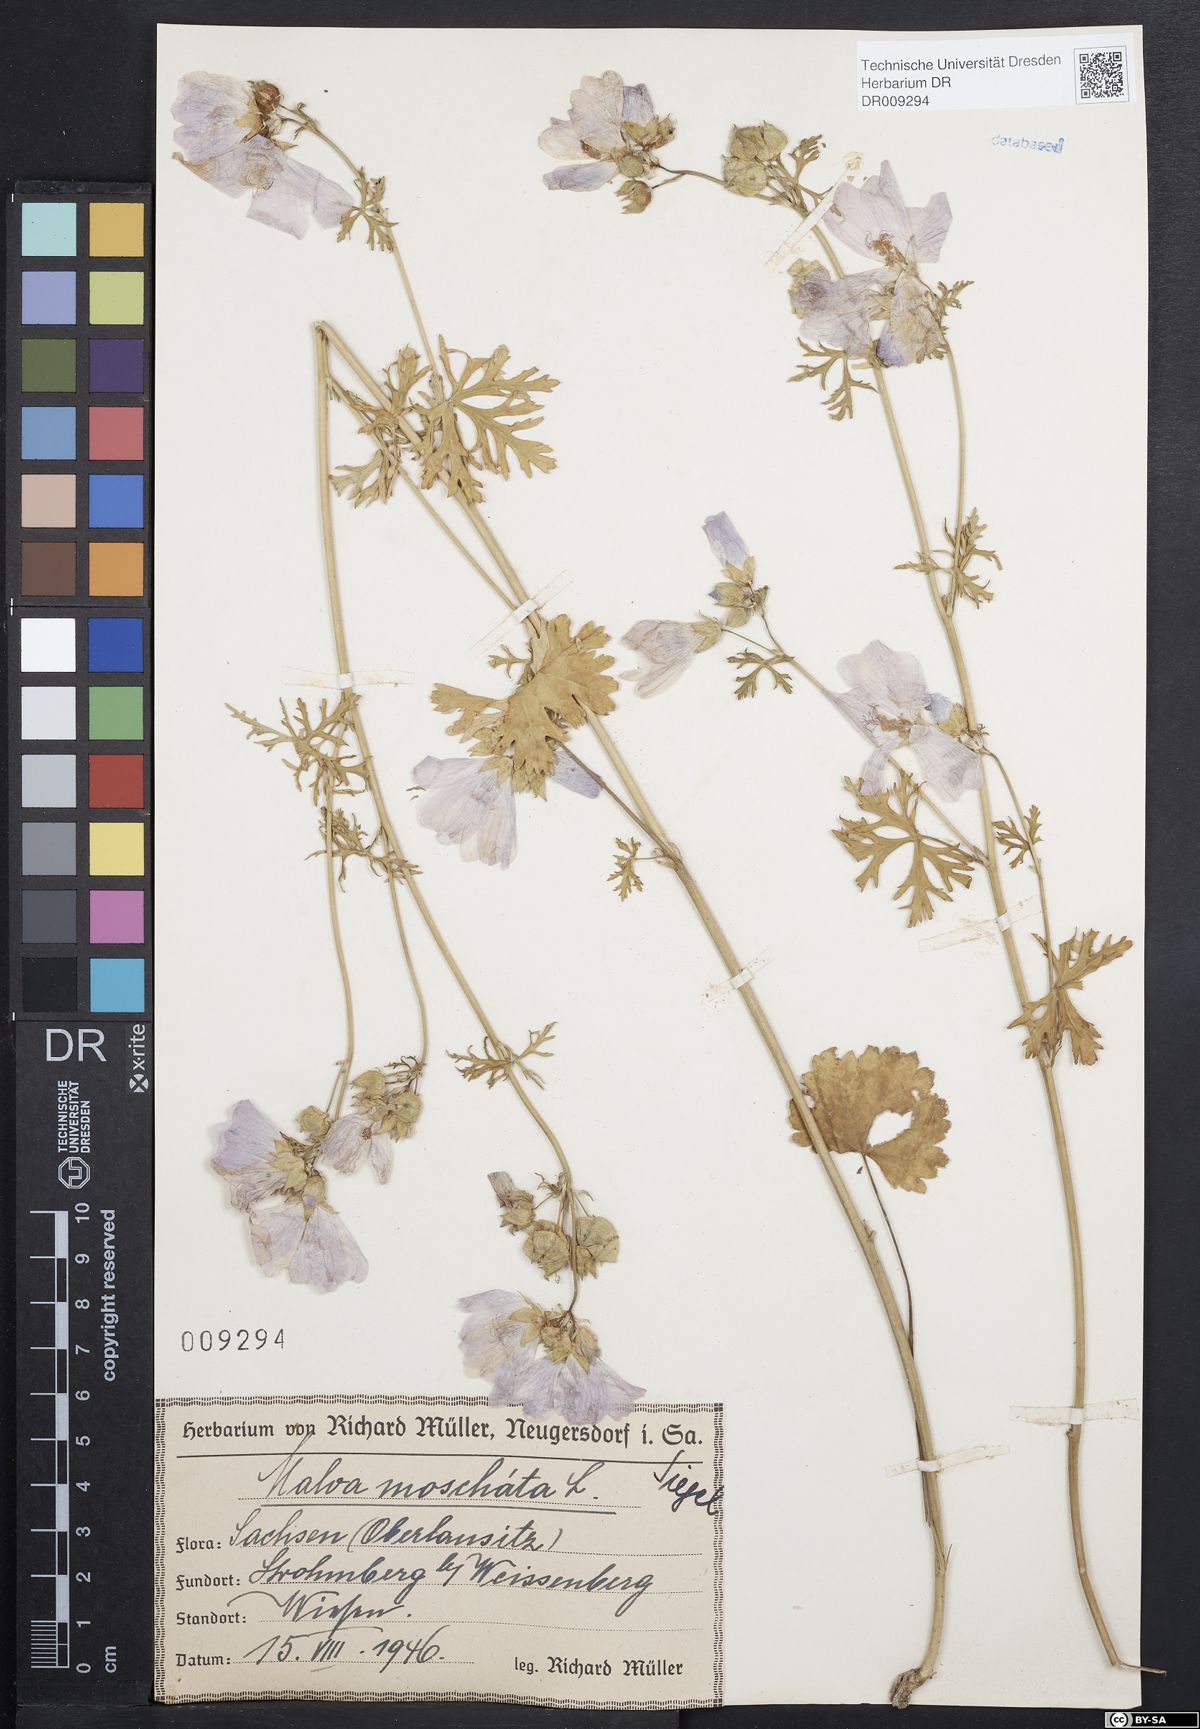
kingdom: Plantae
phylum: Tracheophyta
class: Magnoliopsida
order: Malvales
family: Malvaceae
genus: Malva
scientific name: Malva moschata
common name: Musk mallow
